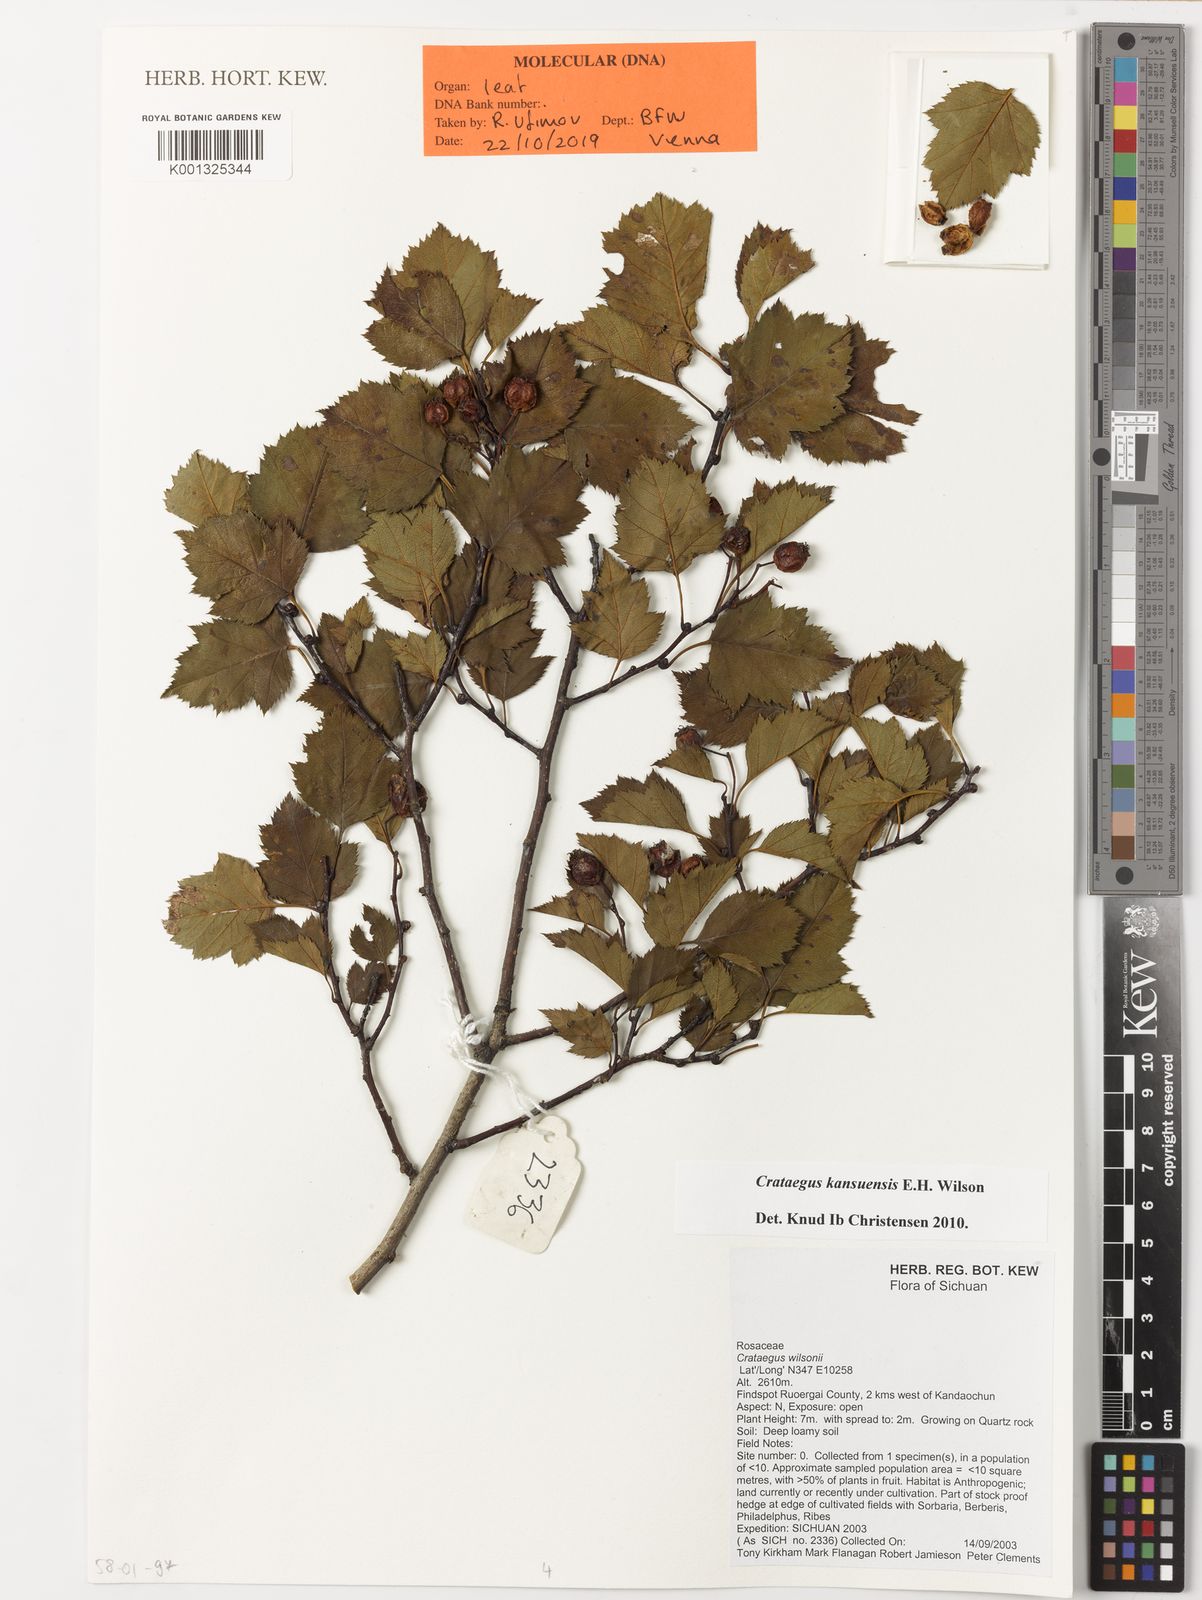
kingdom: Plantae
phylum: Tracheophyta
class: Magnoliopsida
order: Rosales
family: Rosaceae
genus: Crataegus
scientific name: Crataegus kansuensis
